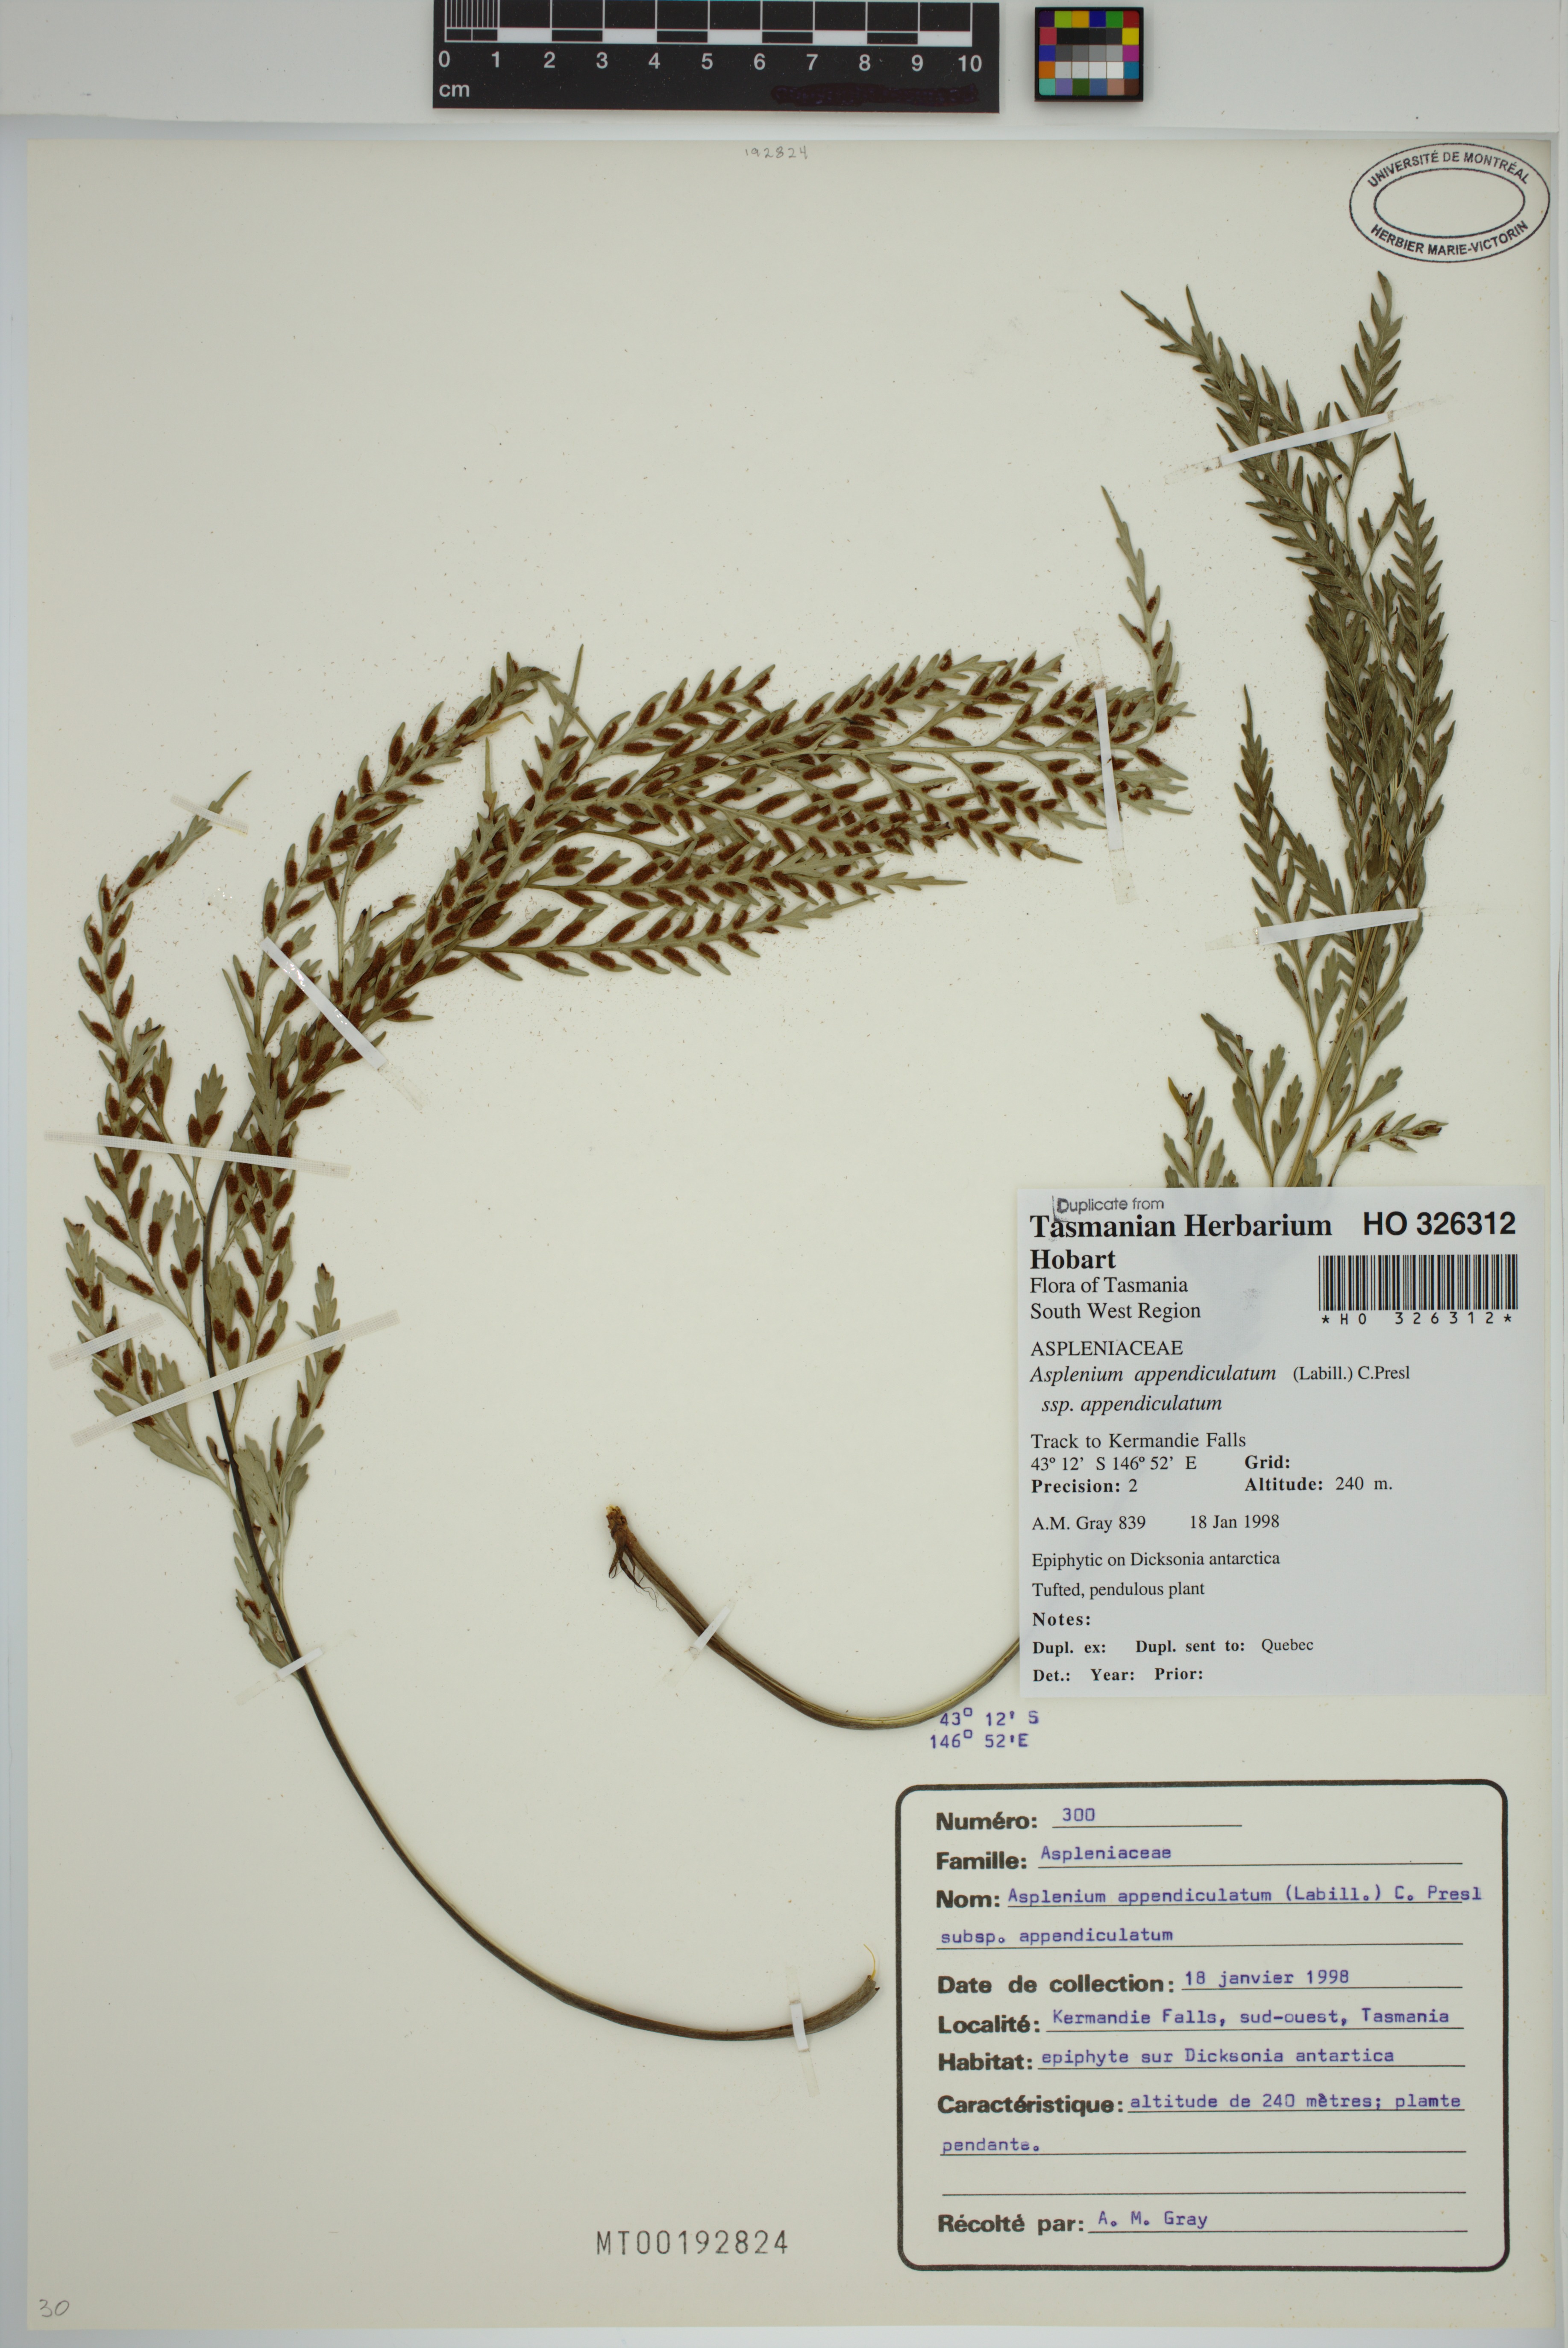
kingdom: Plantae
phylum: Tracheophyta
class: Polypodiopsida
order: Polypodiales
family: Aspleniaceae
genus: Asplenium
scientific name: Asplenium appendiculatum
